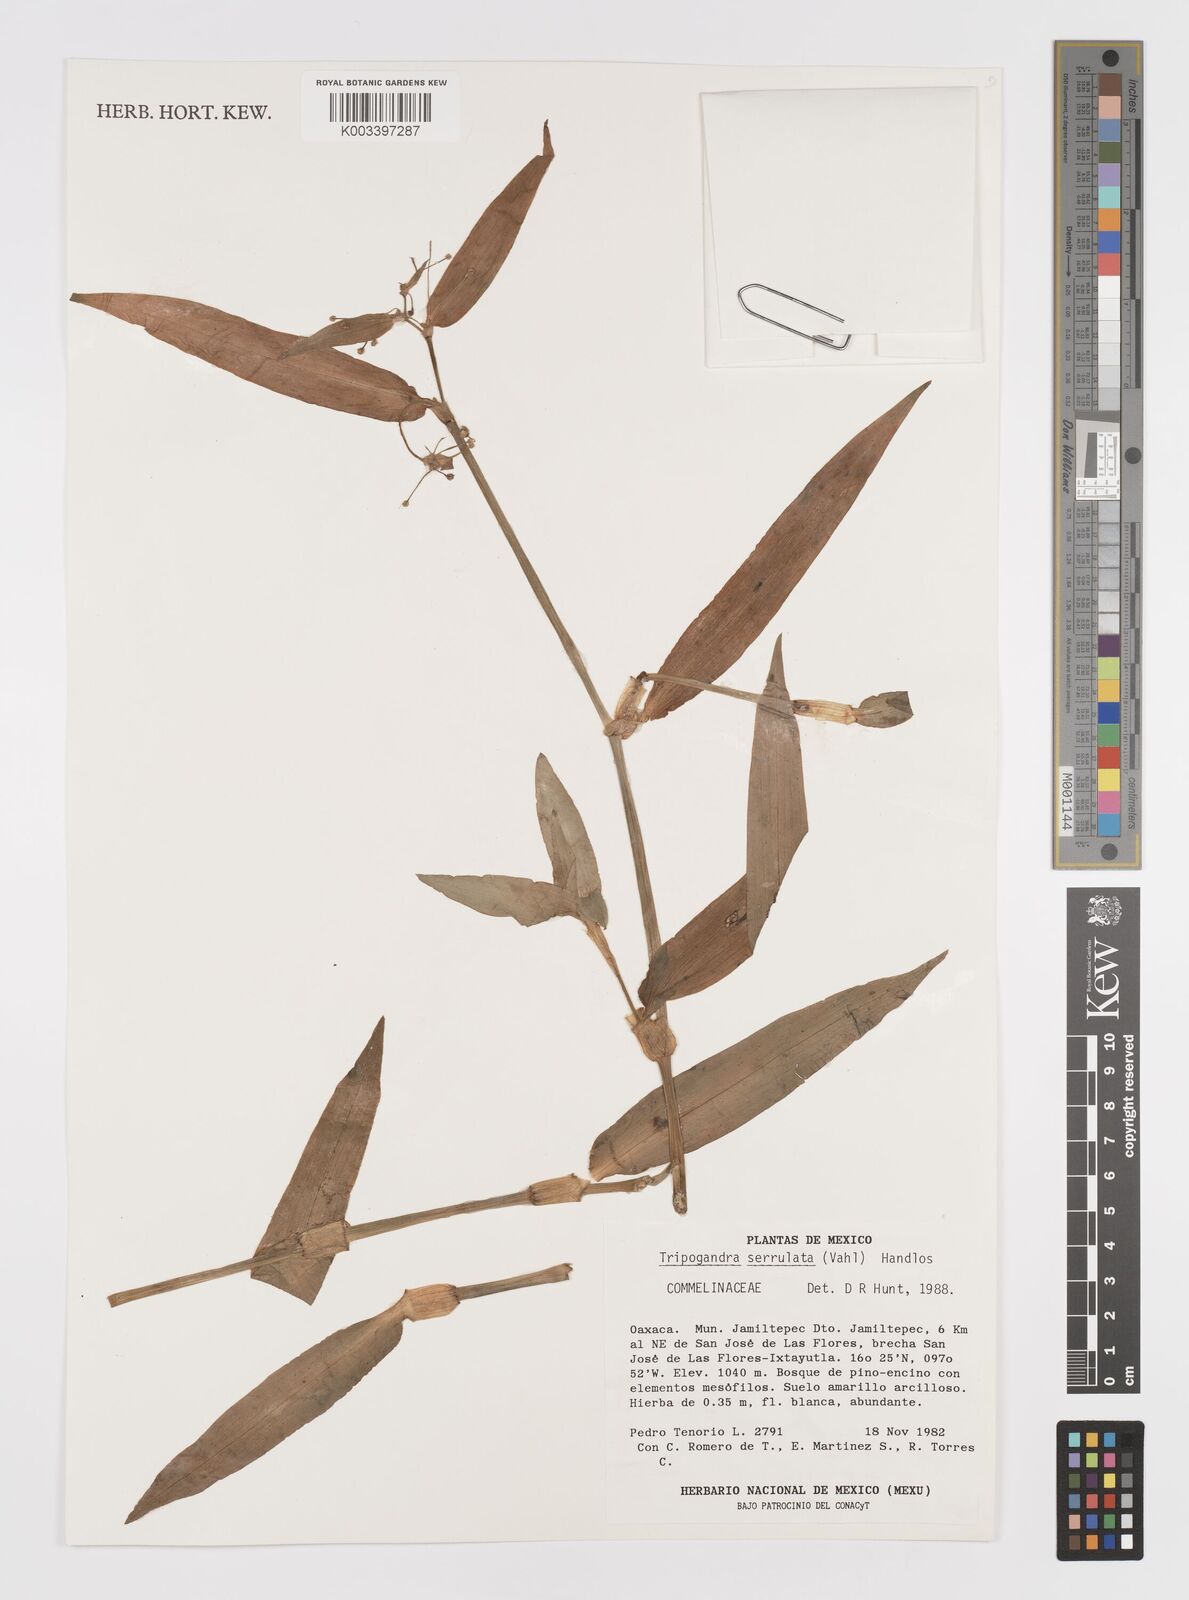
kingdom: Plantae
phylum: Tracheophyta
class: Liliopsida
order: Commelinales
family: Commelinaceae
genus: Callisia
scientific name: Callisia serrulata
